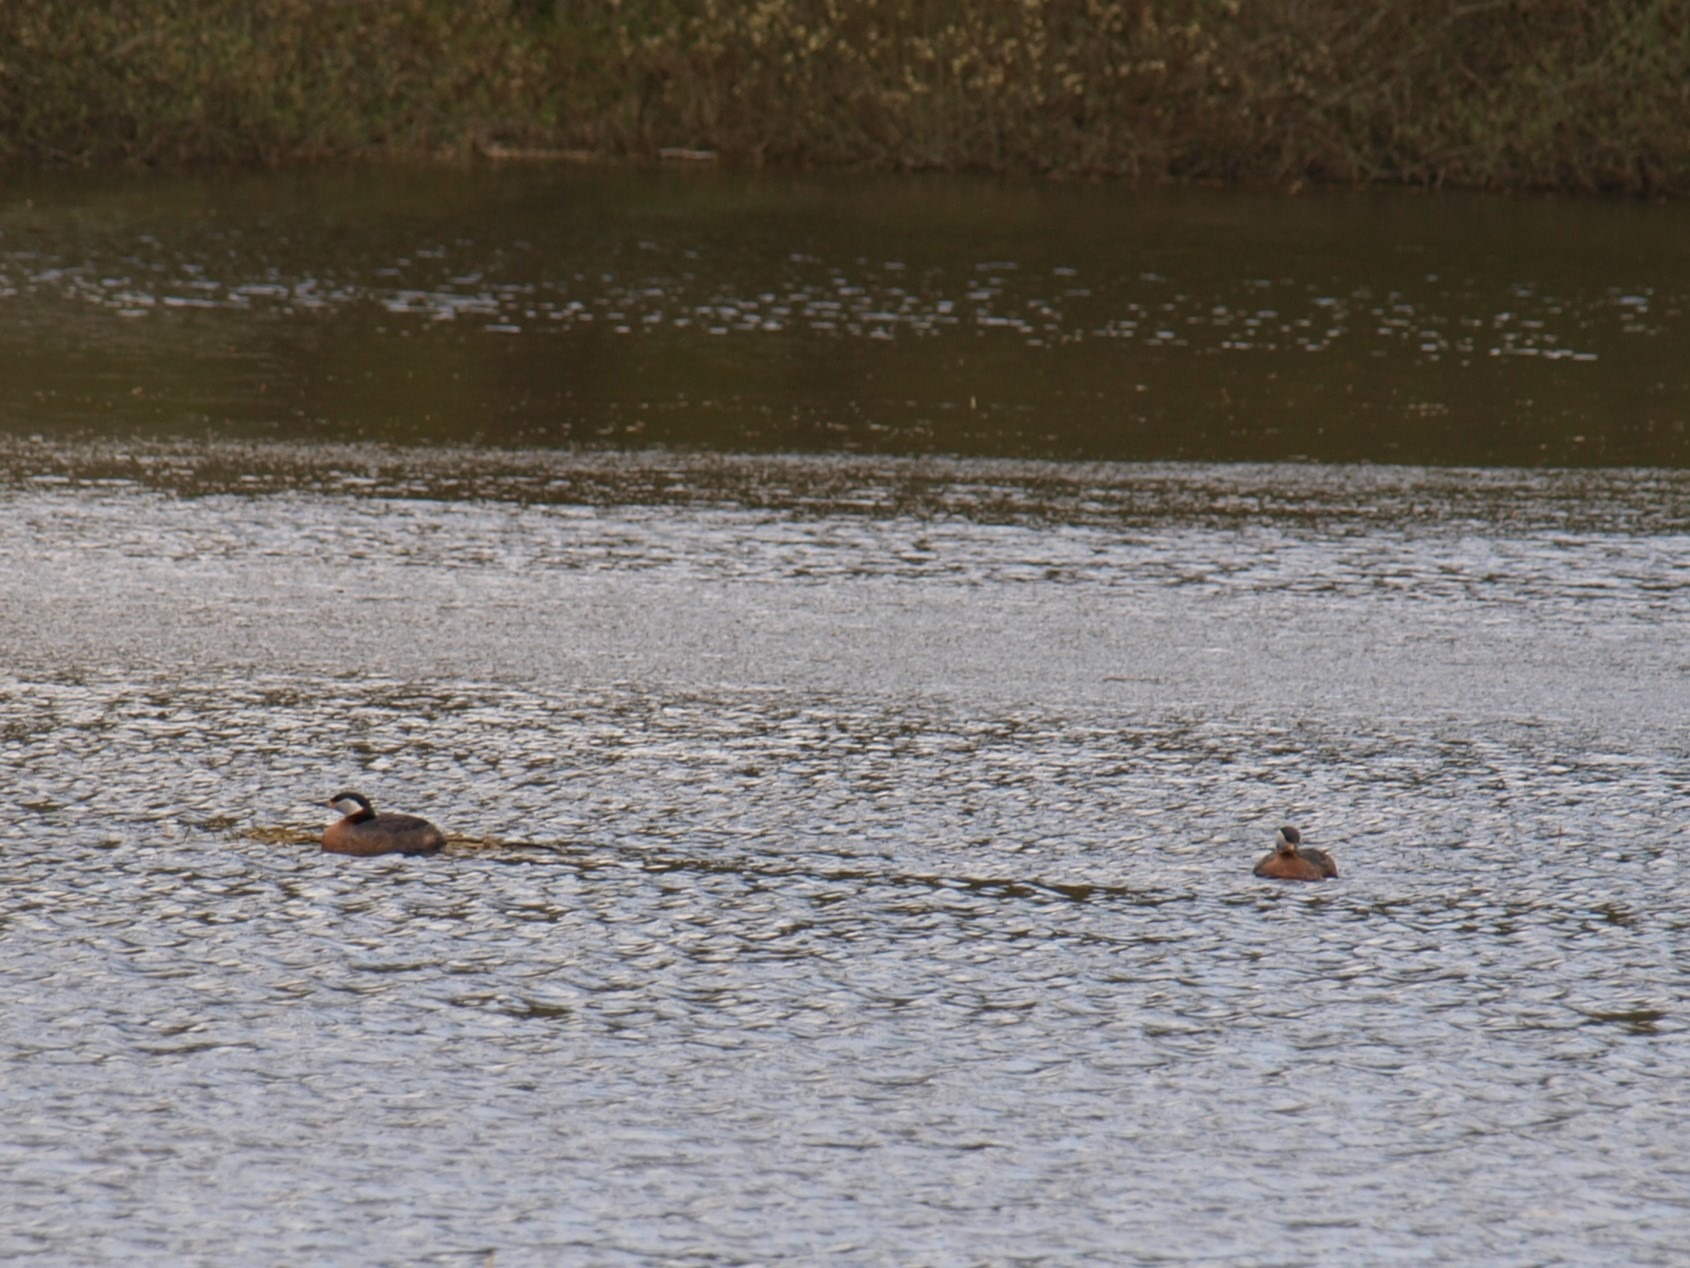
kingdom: Animalia
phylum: Chordata
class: Aves
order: Podicipediformes
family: Podicipedidae
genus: Podiceps
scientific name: Podiceps grisegena
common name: Gråstrubet lappedykker
